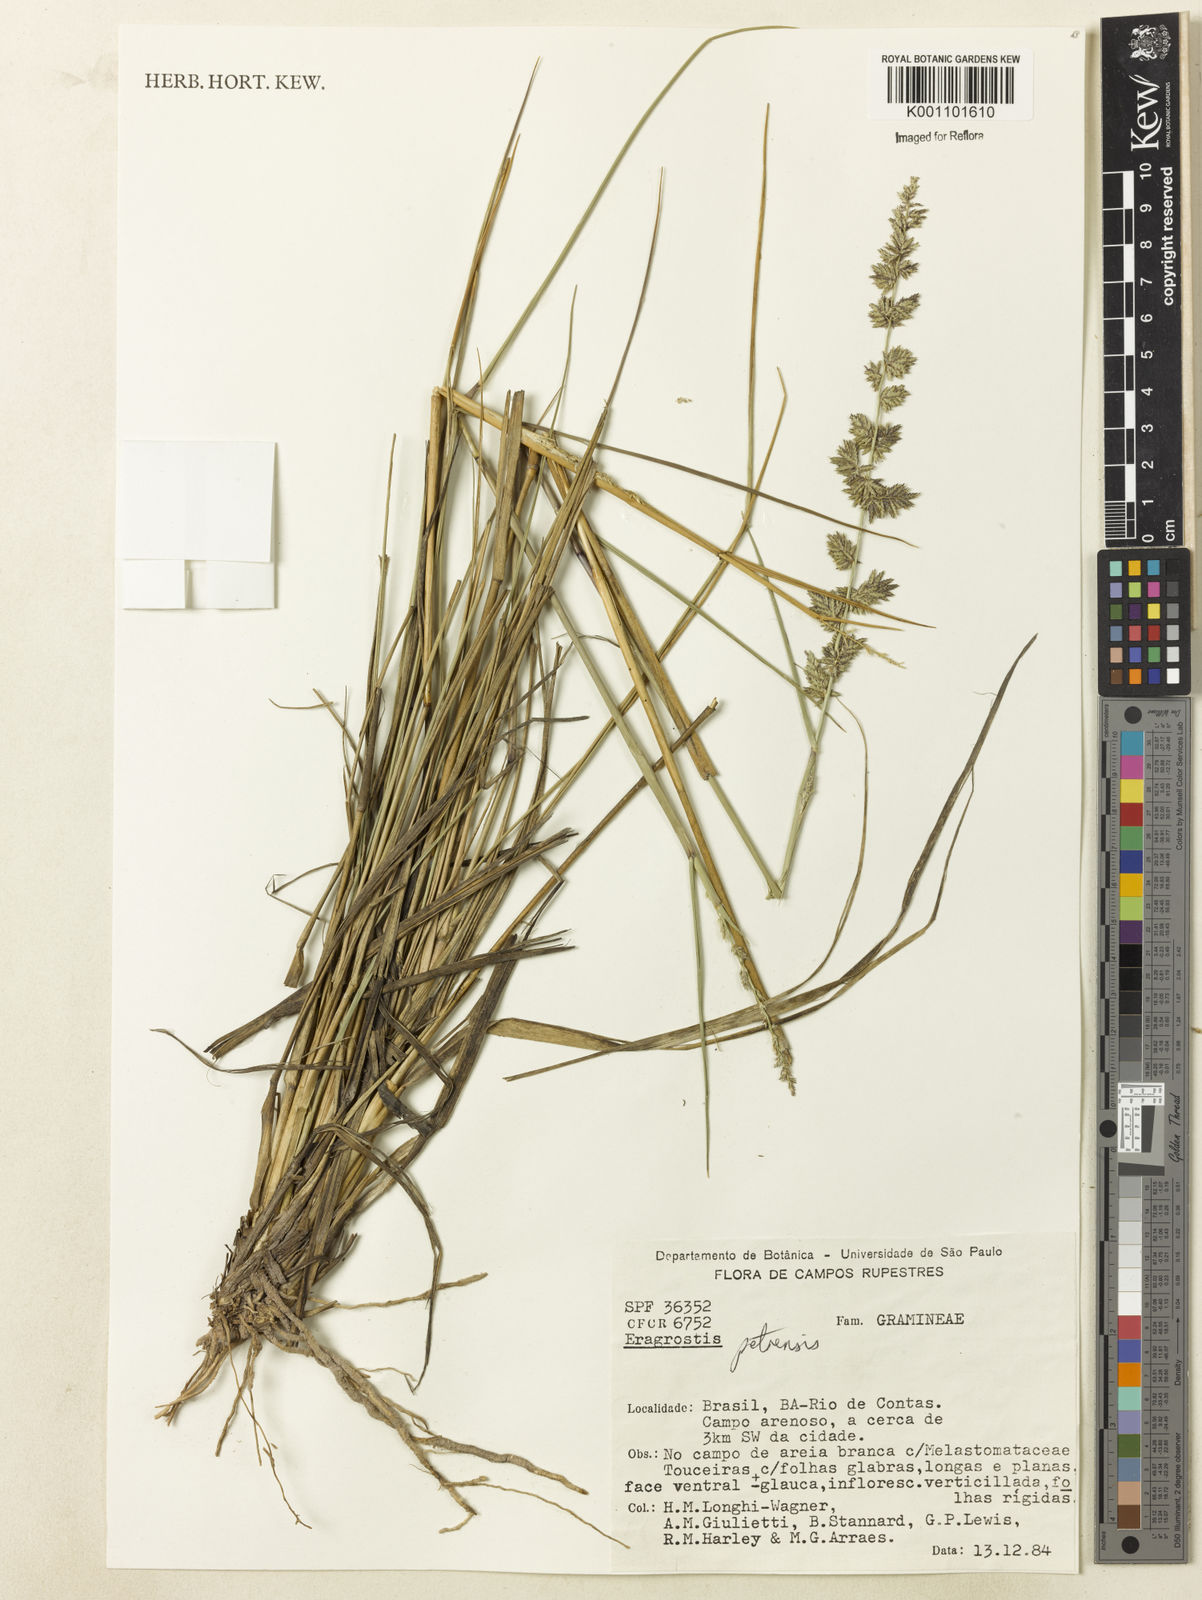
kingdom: Plantae
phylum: Tracheophyta
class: Liliopsida
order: Poales
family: Poaceae
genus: Eragrostis
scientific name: Eragrostis petrensis
